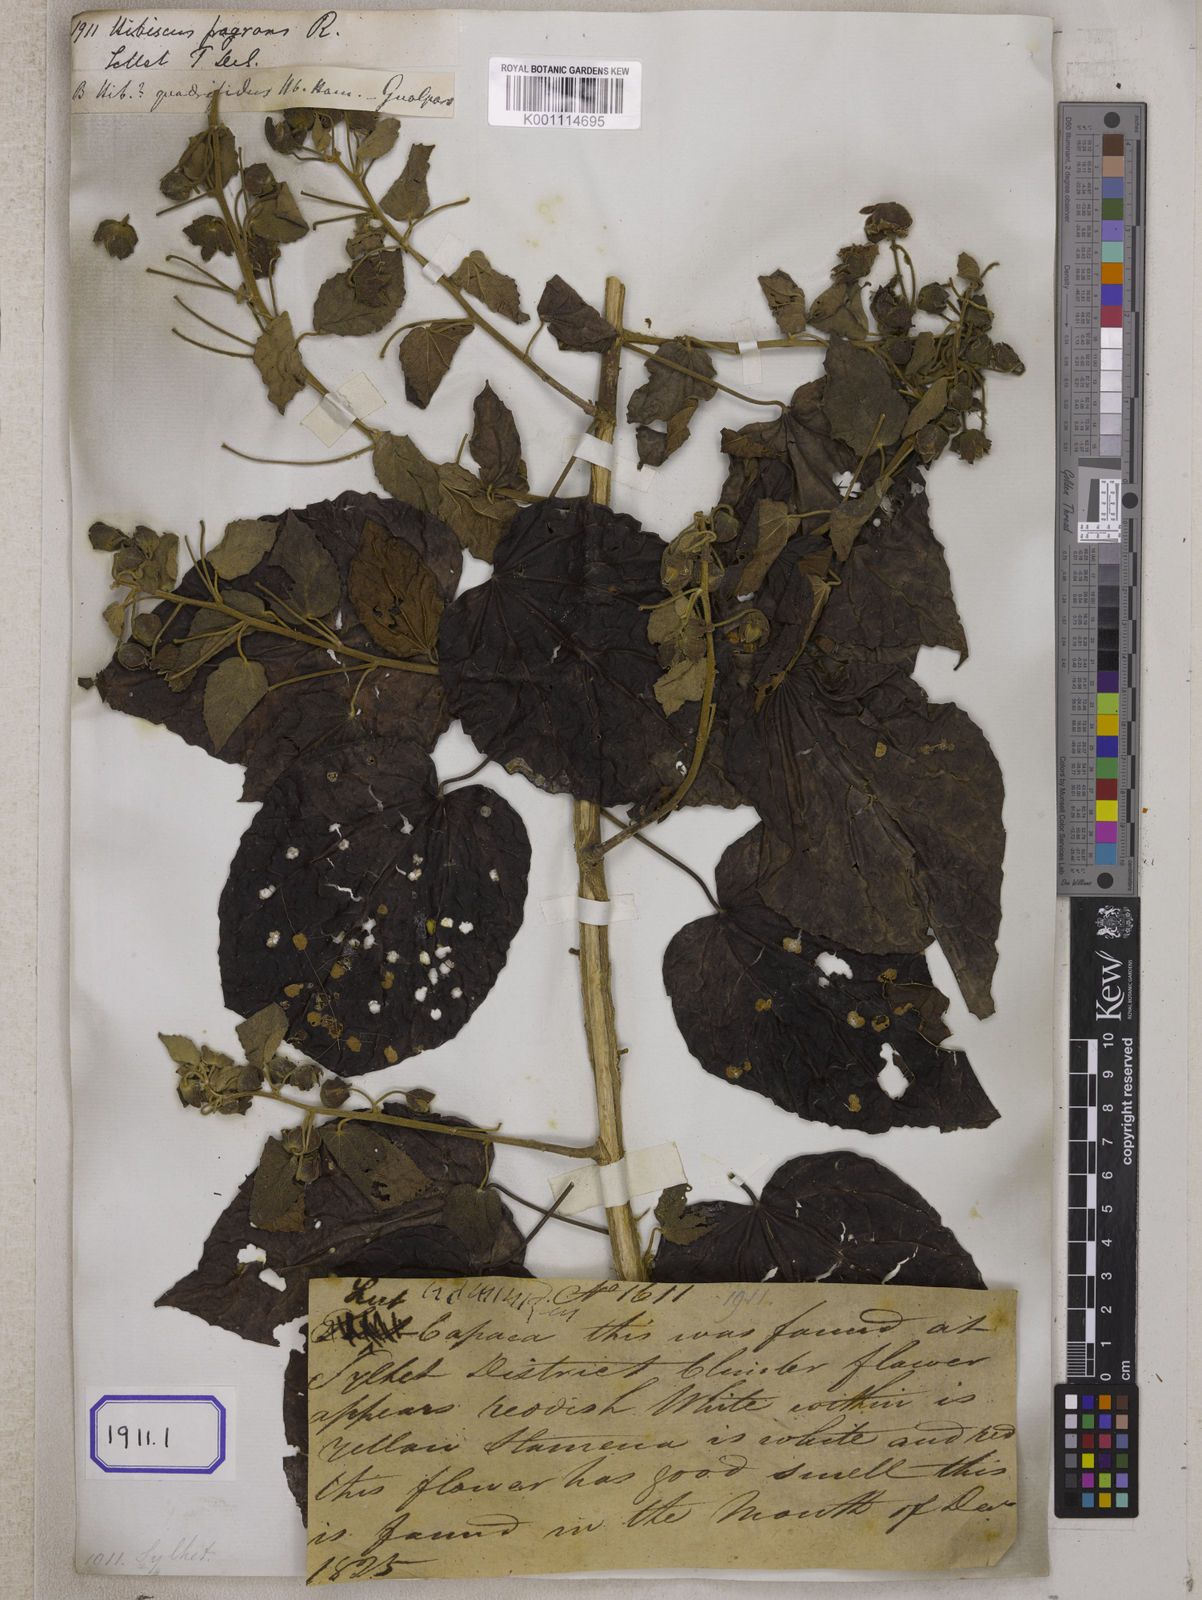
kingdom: Plantae
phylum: Tracheophyta
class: Magnoliopsida
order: Malvales
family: Malvaceae
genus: Hibiscus
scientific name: Hibiscus fragrans
